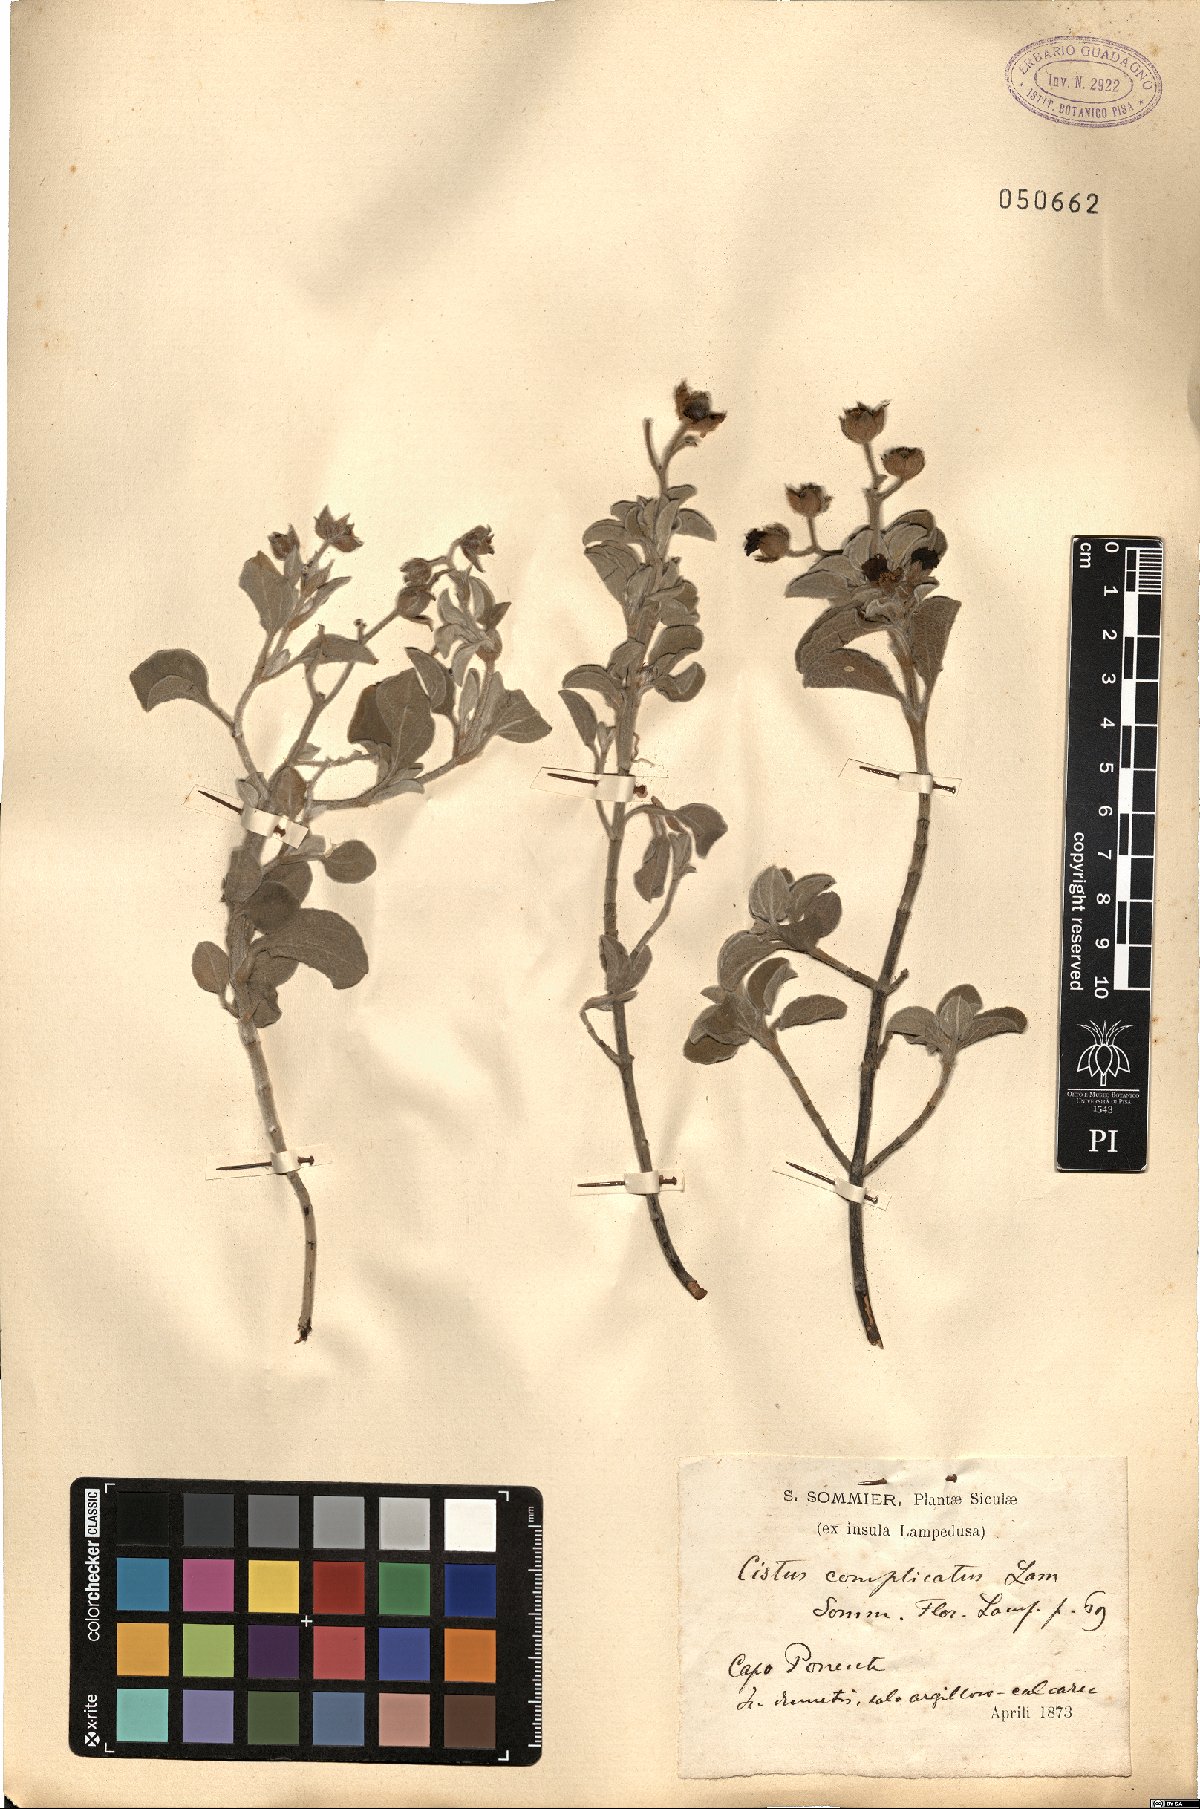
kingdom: Plantae
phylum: Tracheophyta
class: Magnoliopsida
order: Malvales
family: Cistaceae
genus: Cistus
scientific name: Cistus parviflorus
